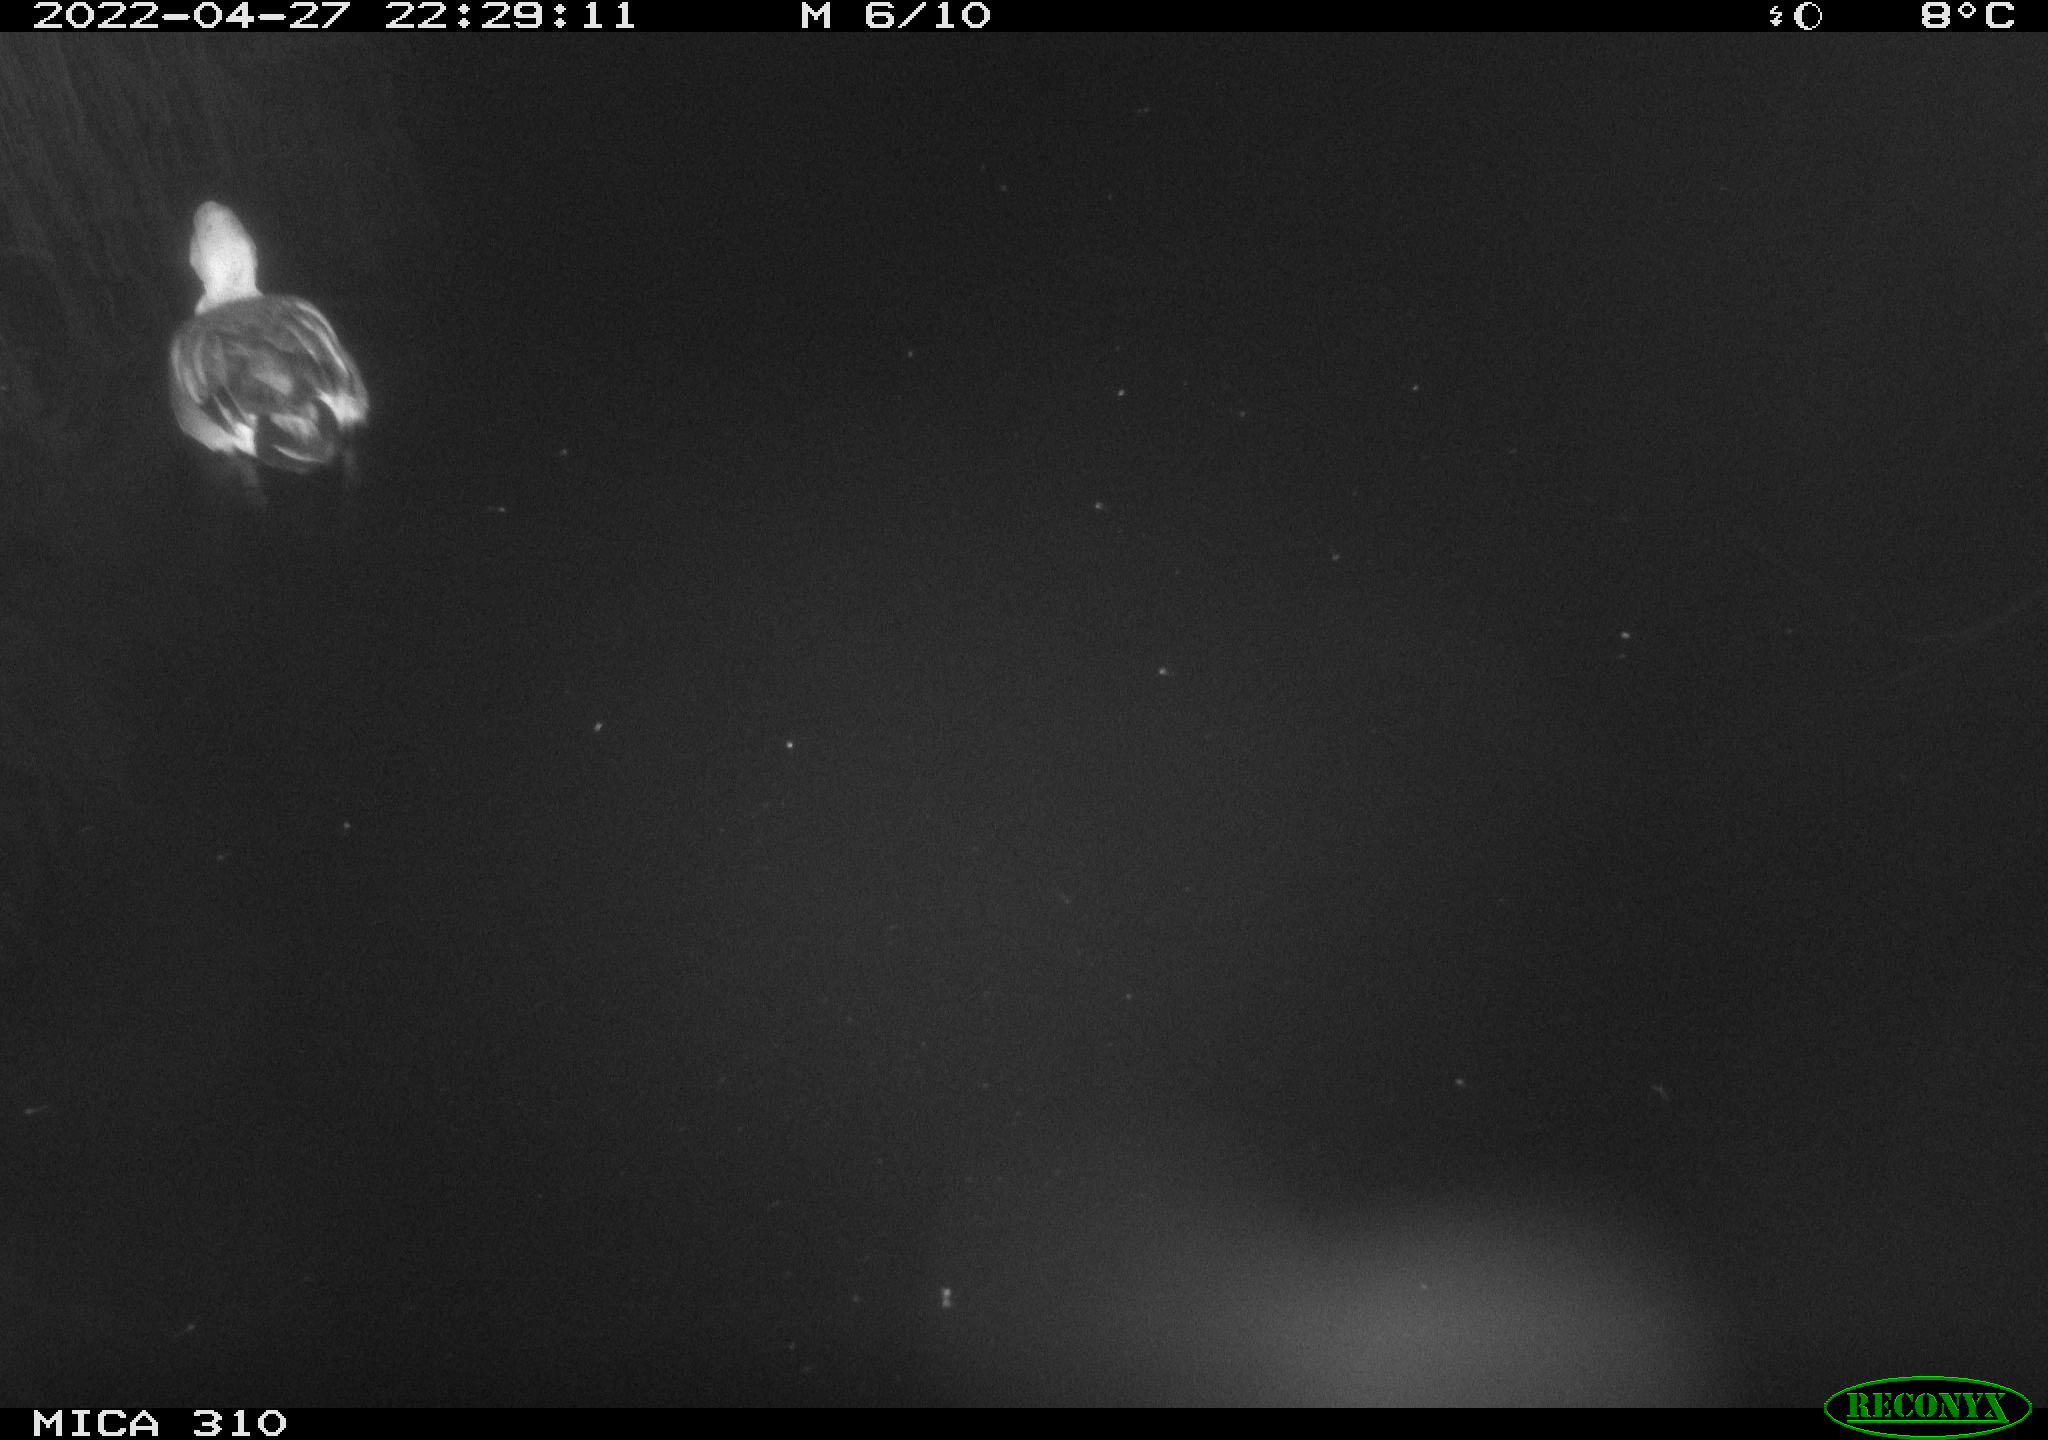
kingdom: Animalia
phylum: Chordata
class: Aves
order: Anseriformes
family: Anatidae
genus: Mareca
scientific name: Mareca strepera
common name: Gadwall
